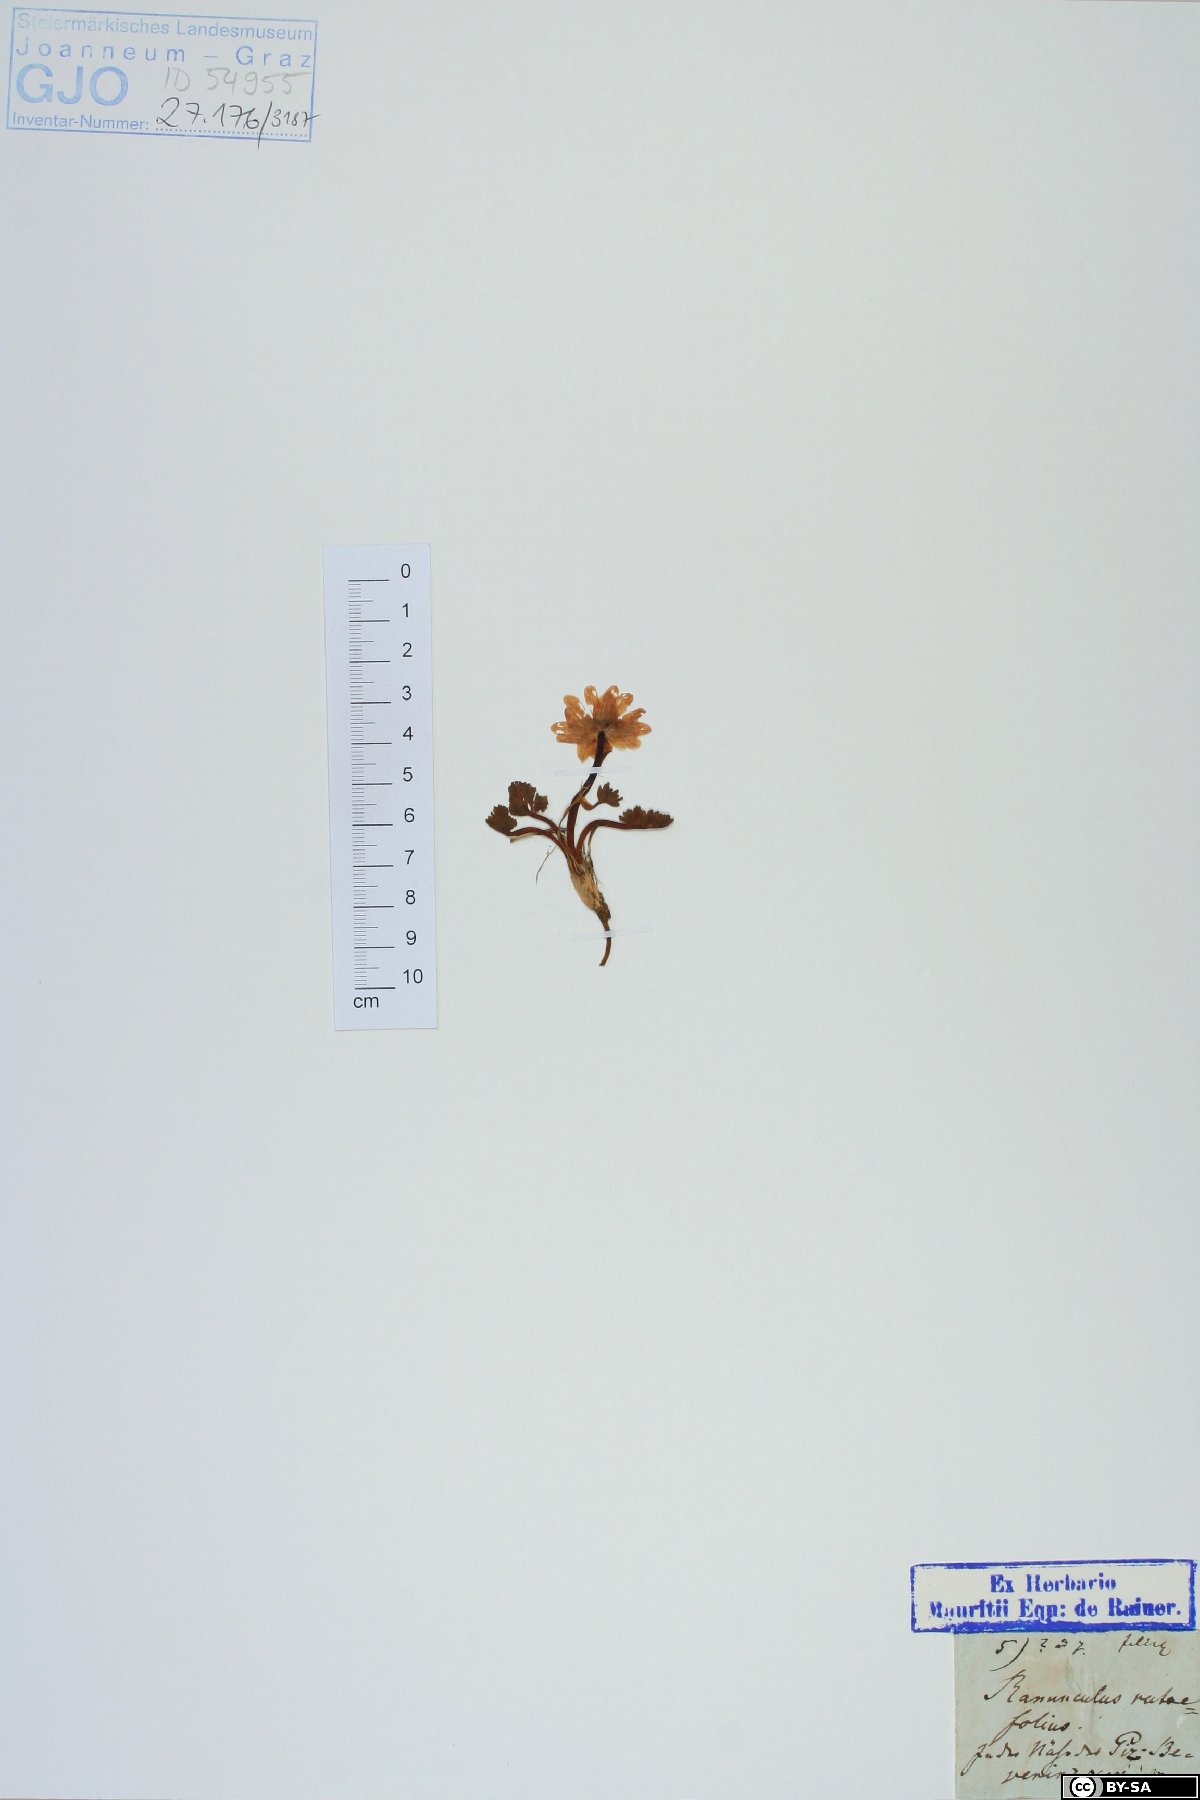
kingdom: Plantae
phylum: Tracheophyta
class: Magnoliopsida
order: Ranunculales
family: Ranunculaceae
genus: Callianthemum
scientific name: Callianthemum anemonoides
